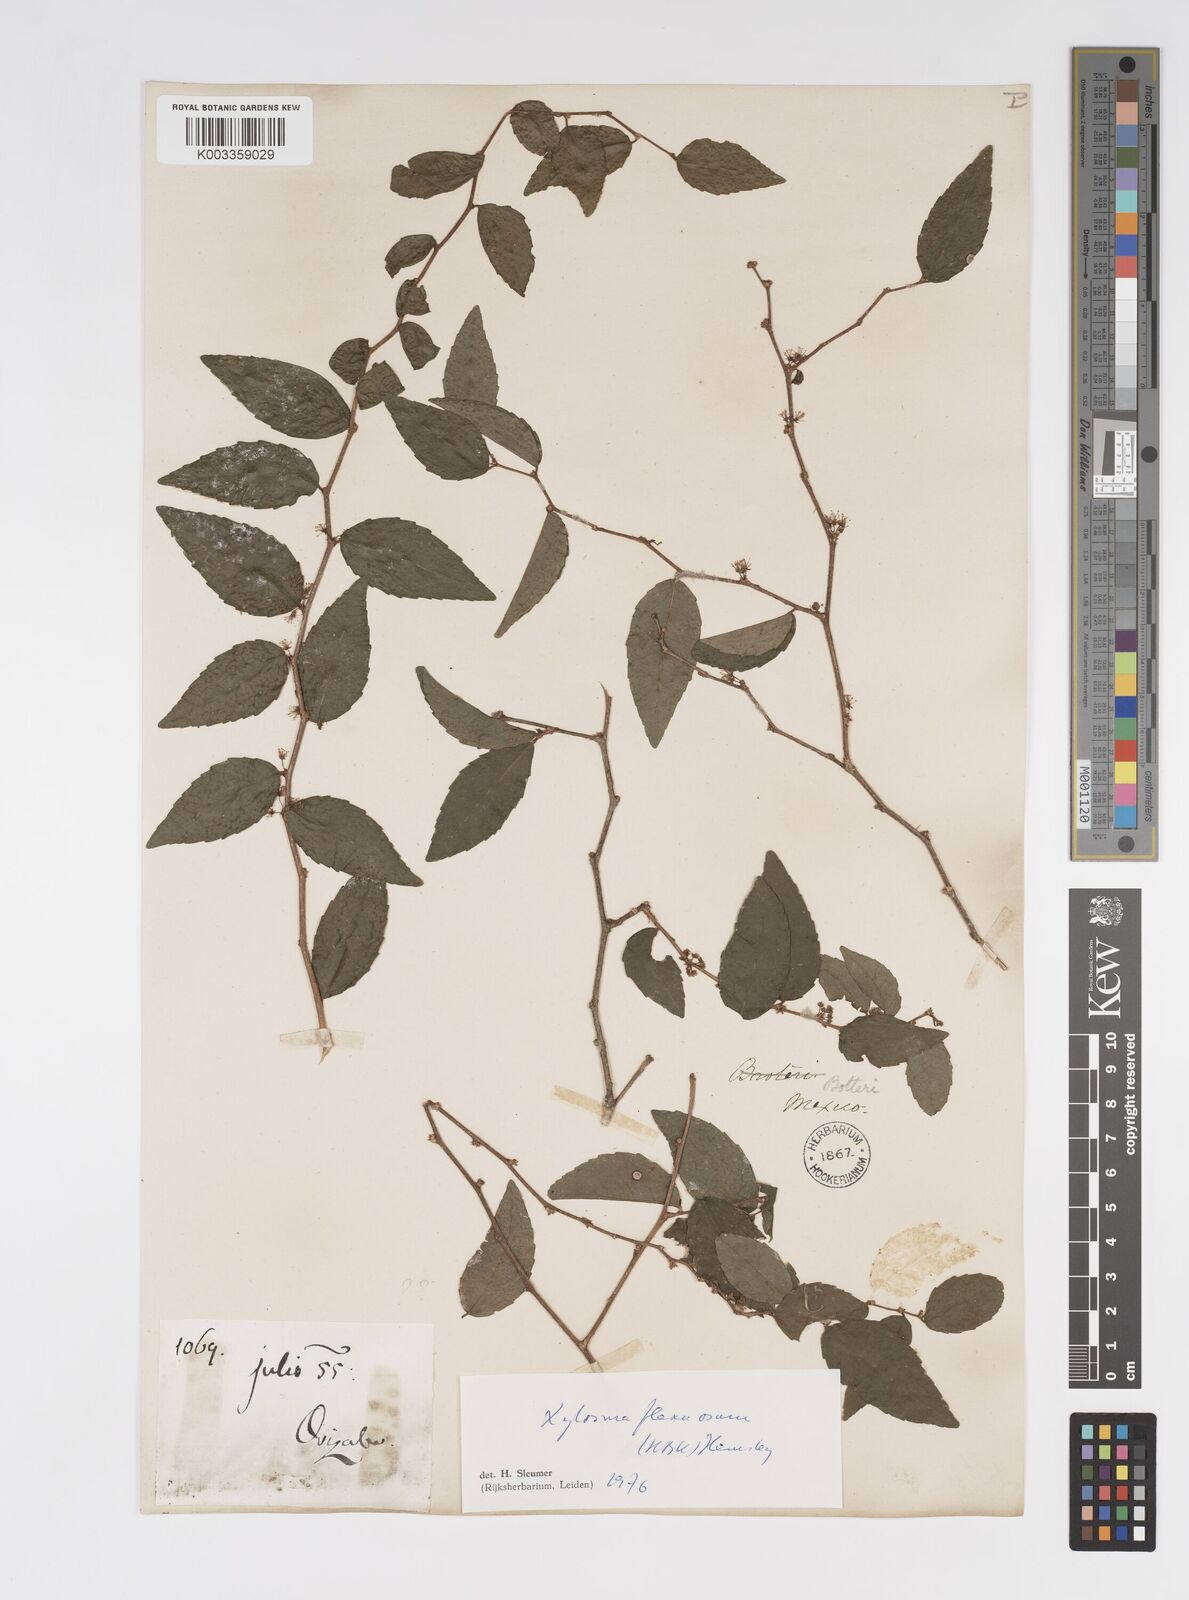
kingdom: Plantae
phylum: Tracheophyta
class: Magnoliopsida
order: Malpighiales
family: Salicaceae
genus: Xylosma
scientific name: Xylosma flexuosa
